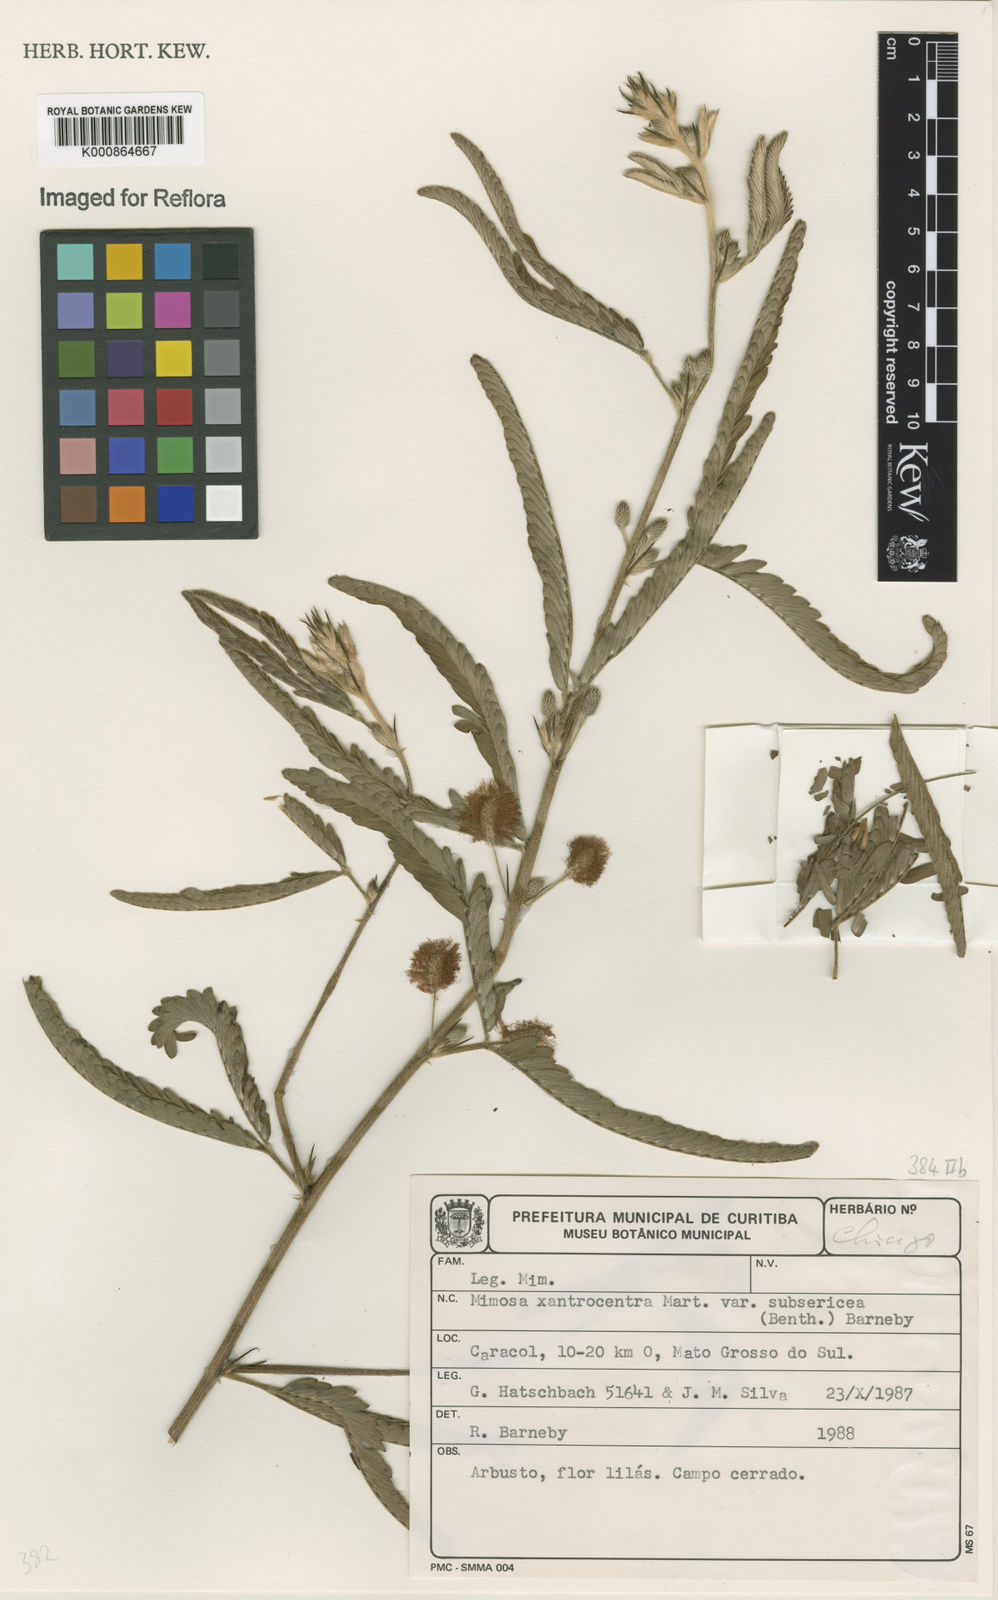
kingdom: Plantae
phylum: Tracheophyta
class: Magnoliopsida
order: Fabales
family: Fabaceae
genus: Mimosa
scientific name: Mimosa xanthocentra
